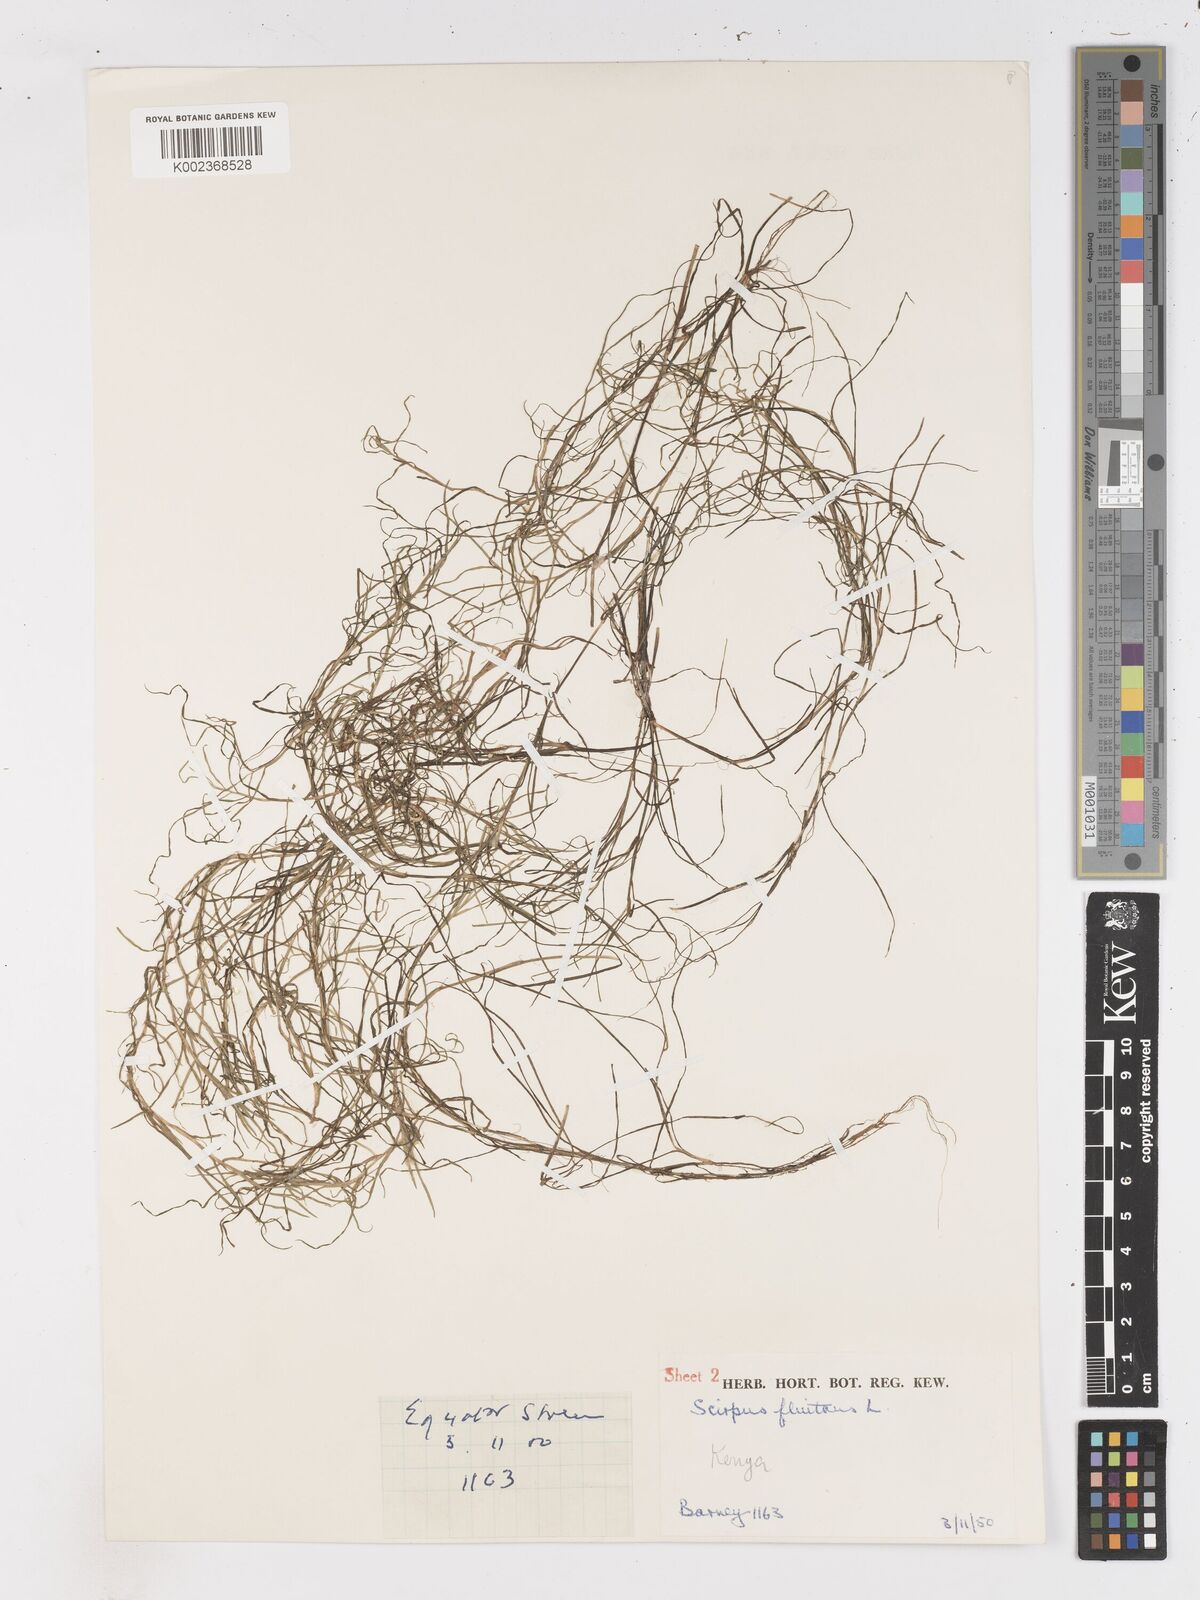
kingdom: Plantae
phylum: Tracheophyta
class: Liliopsida
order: Poales
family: Cyperaceae
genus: Isolepis
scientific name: Isolepis fluitans
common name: Floating club-rush
